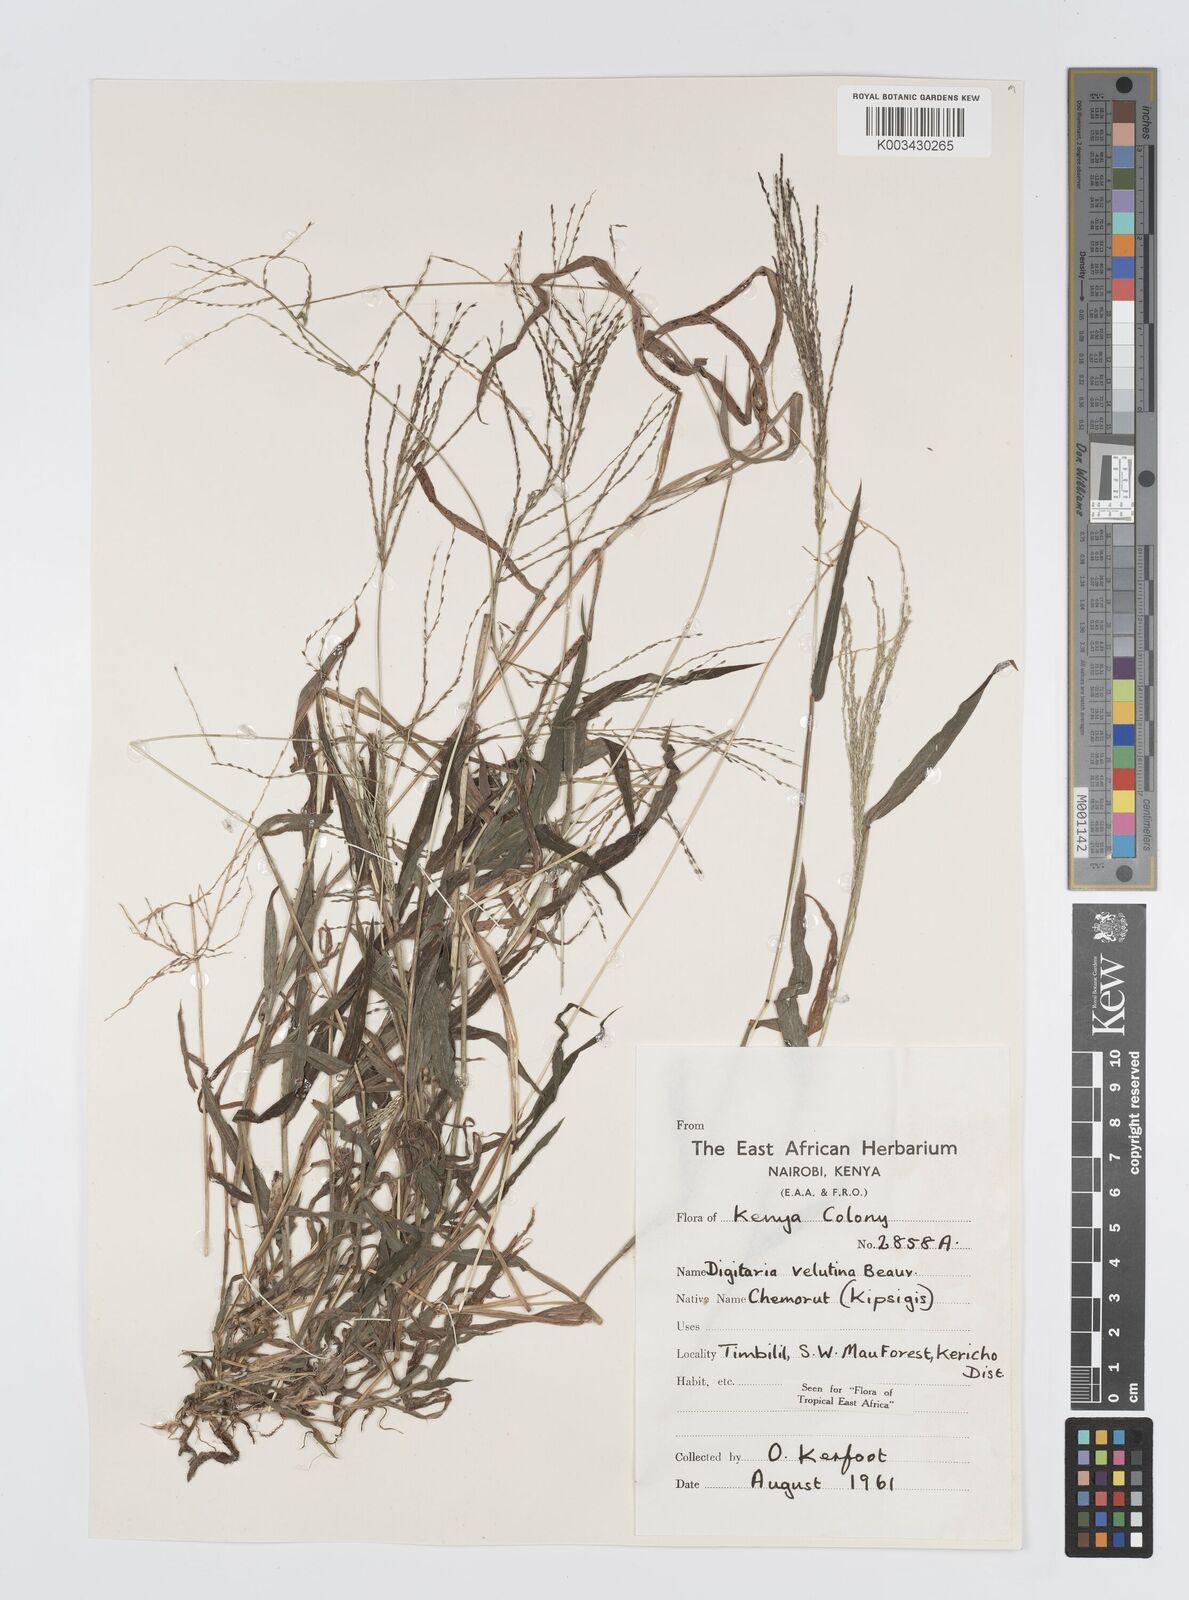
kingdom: Plantae
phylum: Tracheophyta
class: Liliopsida
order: Poales
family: Poaceae
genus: Digitaria
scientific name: Digitaria velutina
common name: Long-plume finger grass
